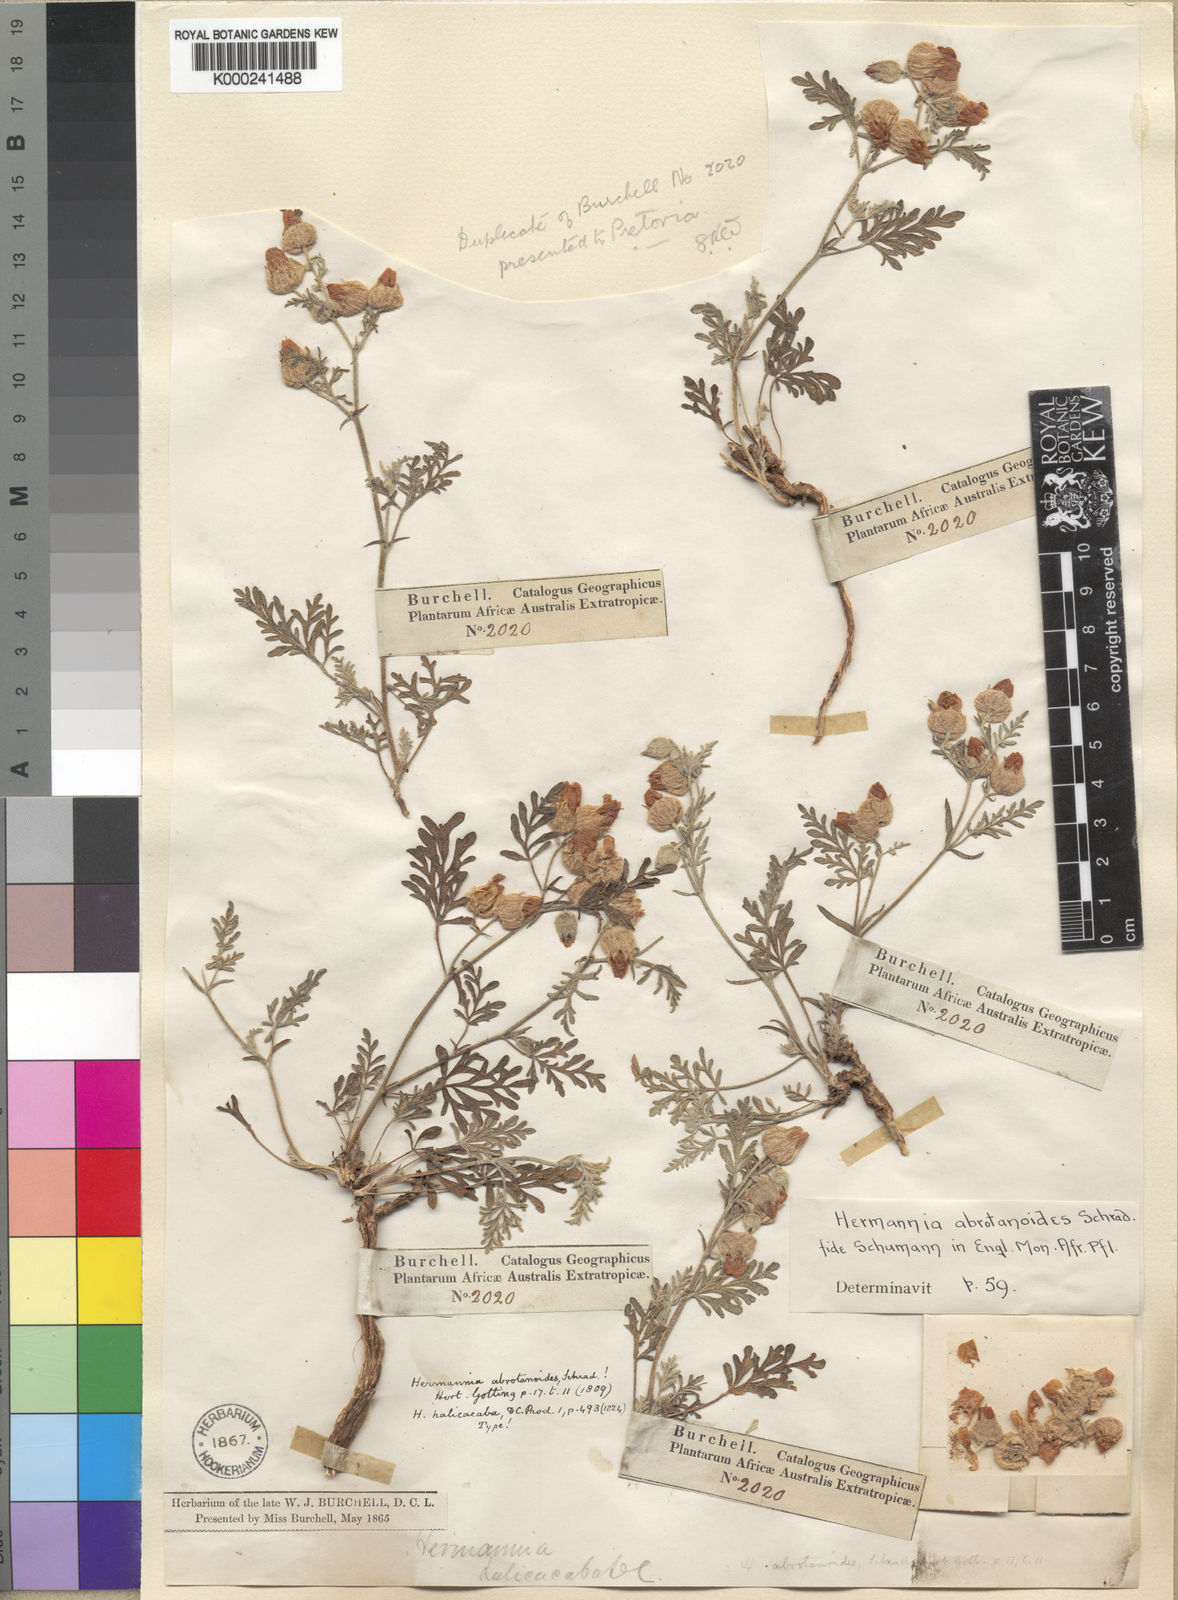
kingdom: Plantae
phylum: Tracheophyta
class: Magnoliopsida
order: Malvales
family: Malvaceae
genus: Hermannia
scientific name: Hermannia abrotanoides
